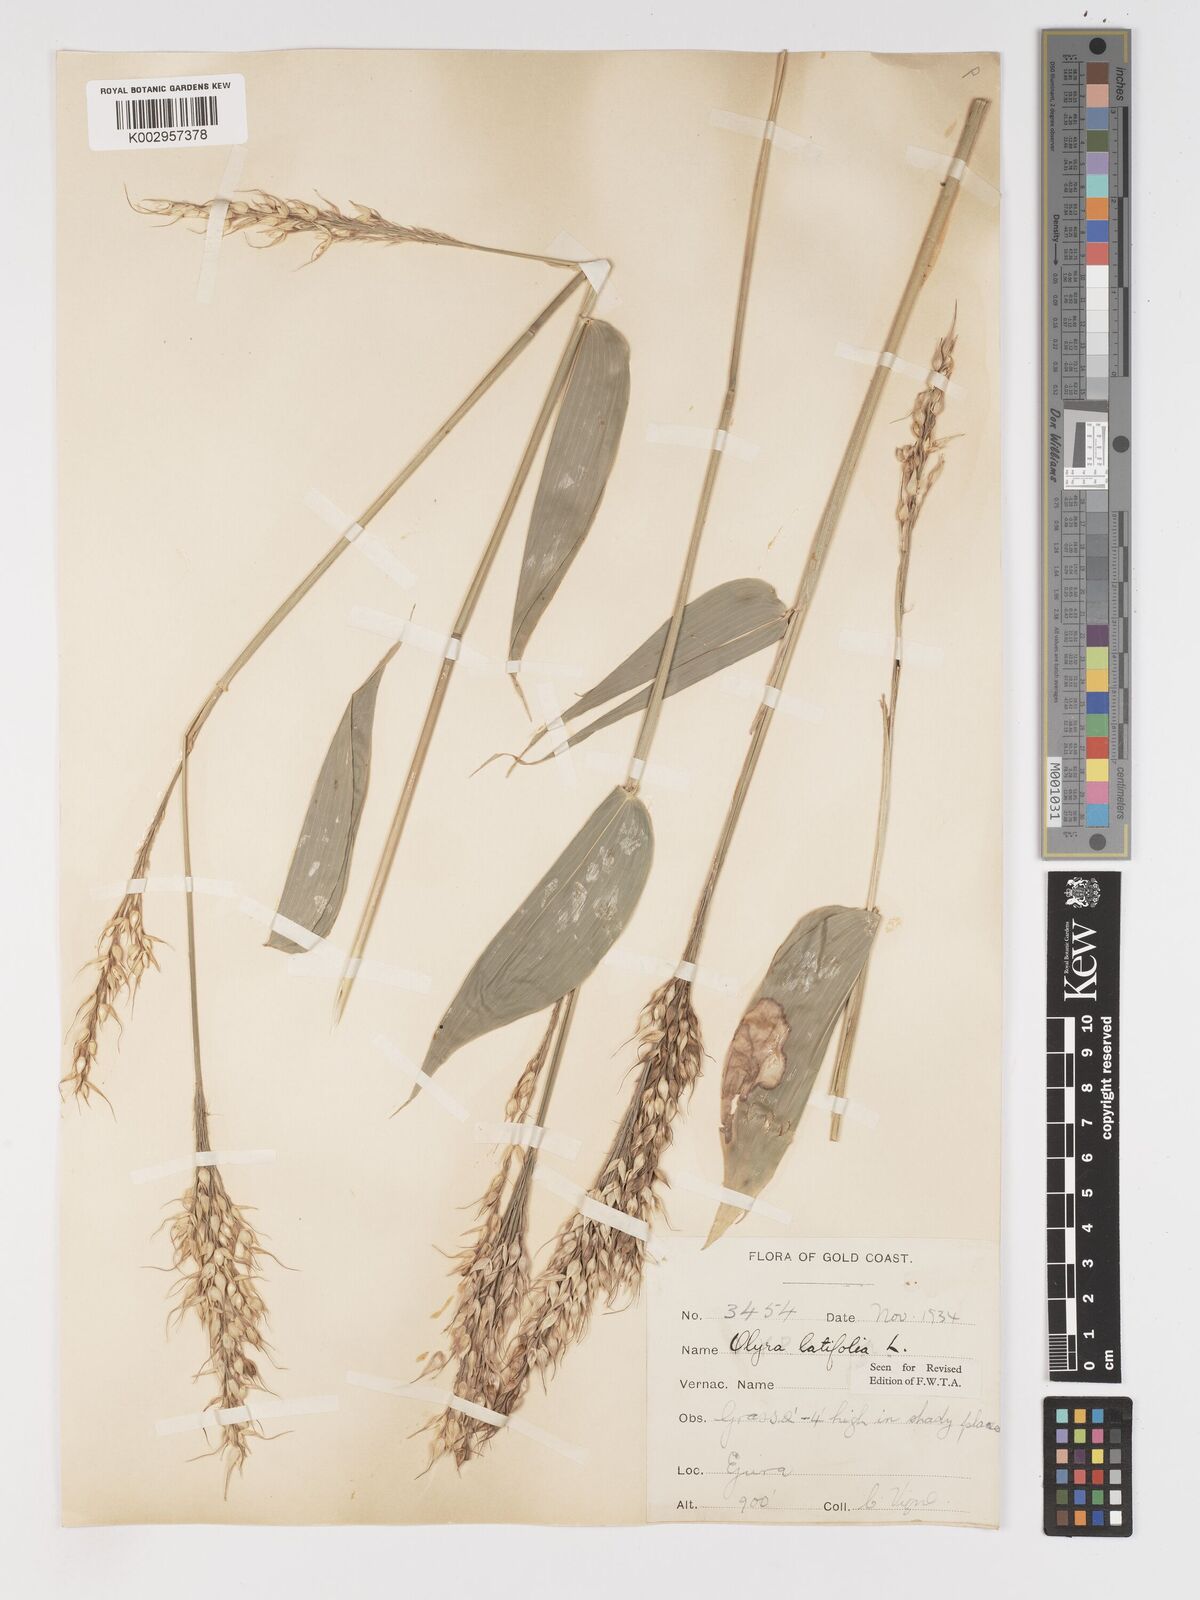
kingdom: Plantae
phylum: Tracheophyta
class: Liliopsida
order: Poales
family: Poaceae
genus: Olyra
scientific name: Olyra latifolia
